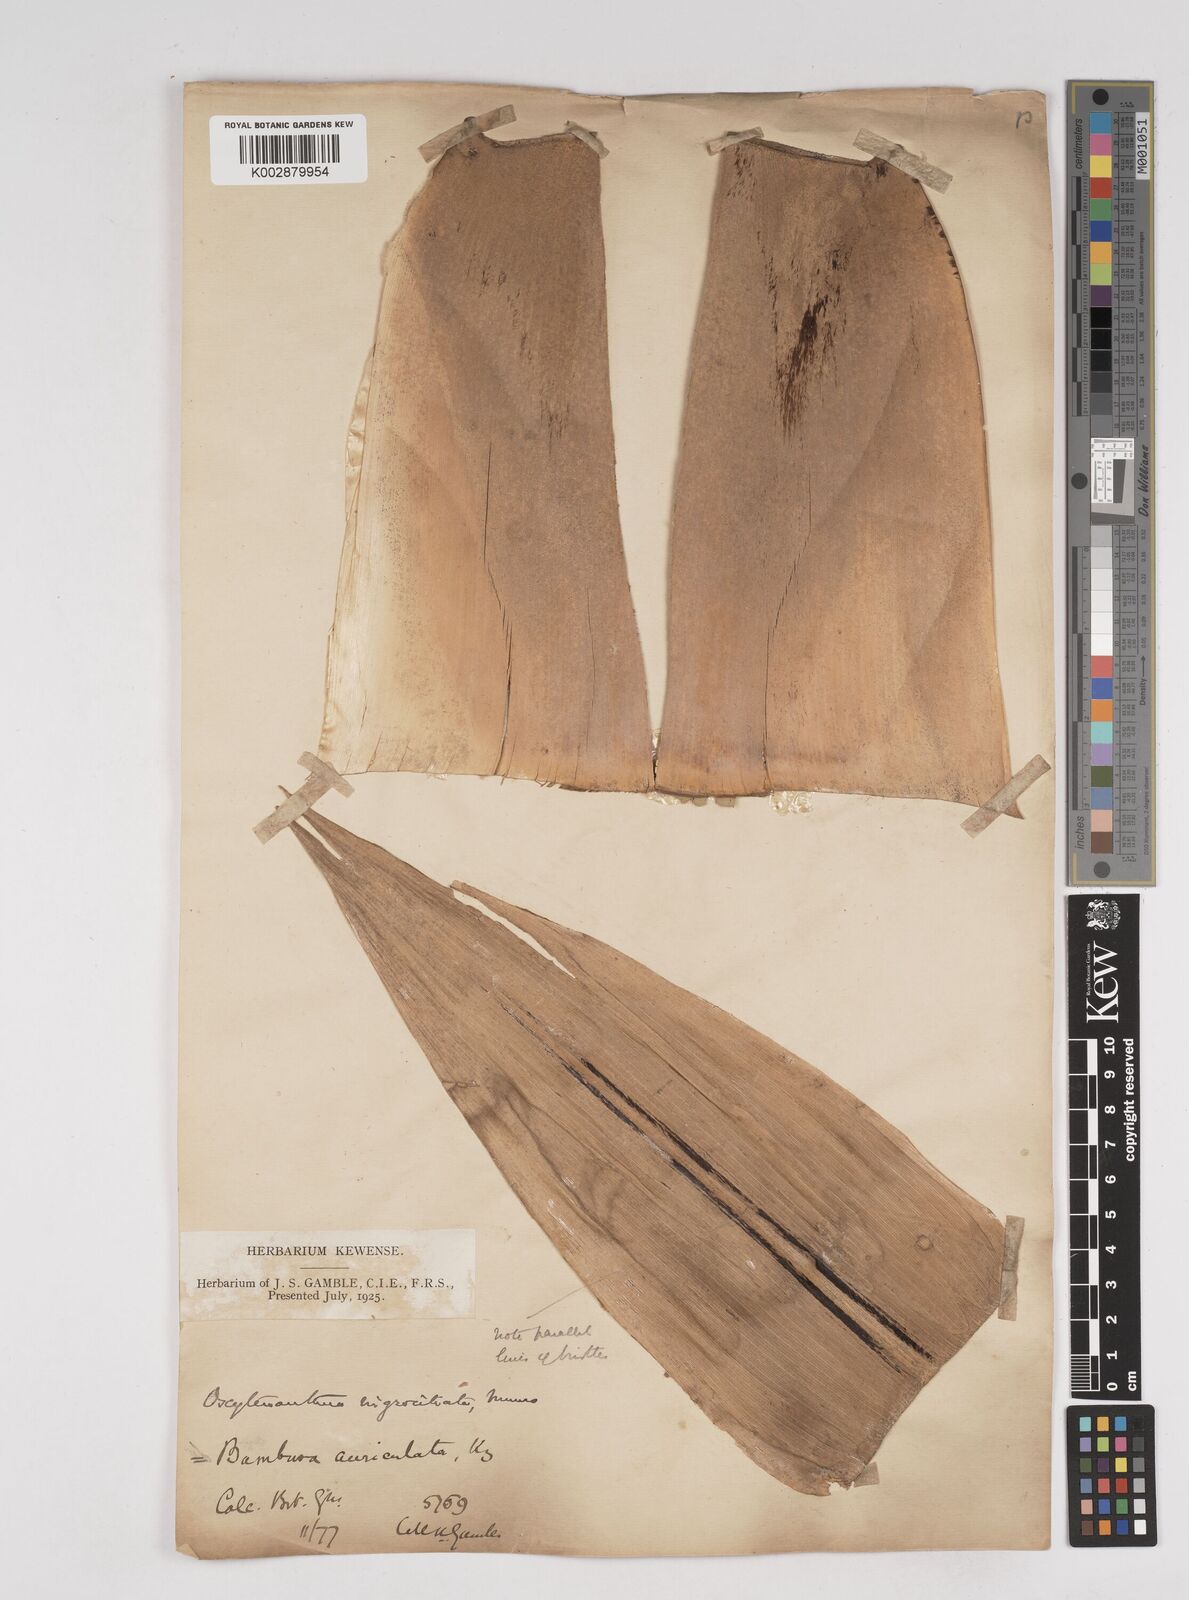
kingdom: Plantae
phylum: Tracheophyta
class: Liliopsida
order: Poales
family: Poaceae
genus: Gigantochloa
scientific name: Gigantochloa nigrociliata
